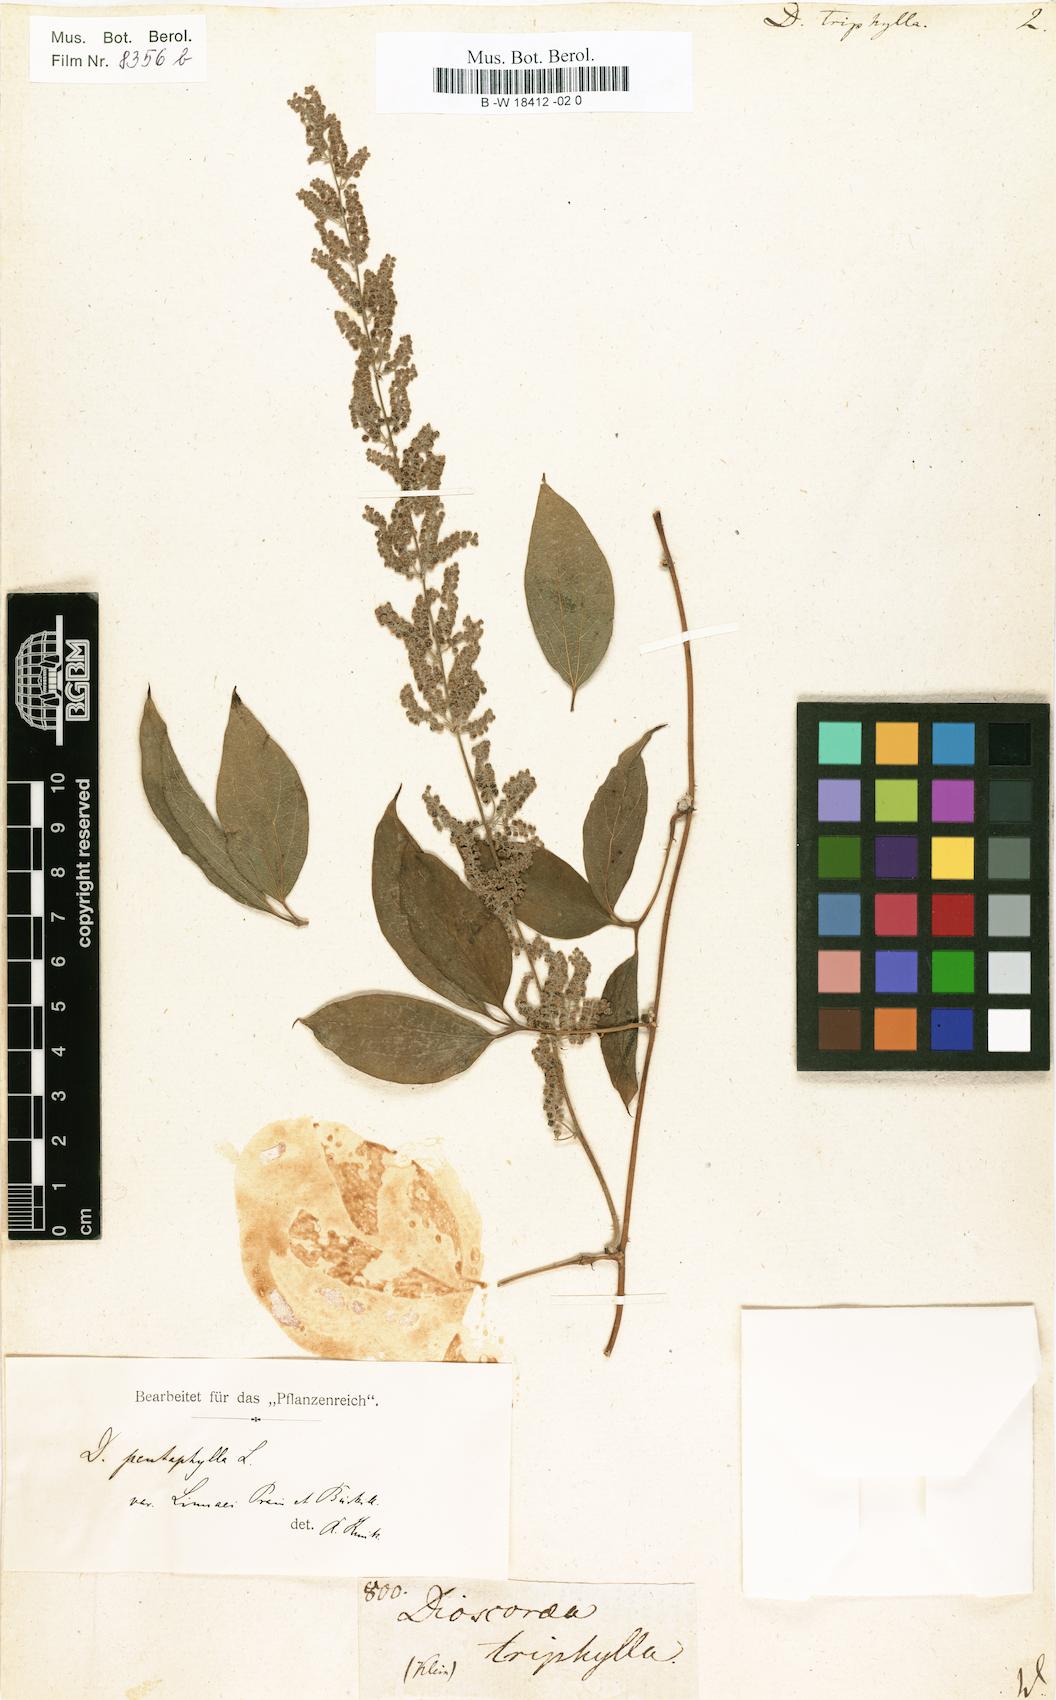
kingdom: Plantae
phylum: Tracheophyta
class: Liliopsida
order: Dioscoreales
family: Dioscoreaceae
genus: Dioscorea
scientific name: Dioscorea pentaphylla
